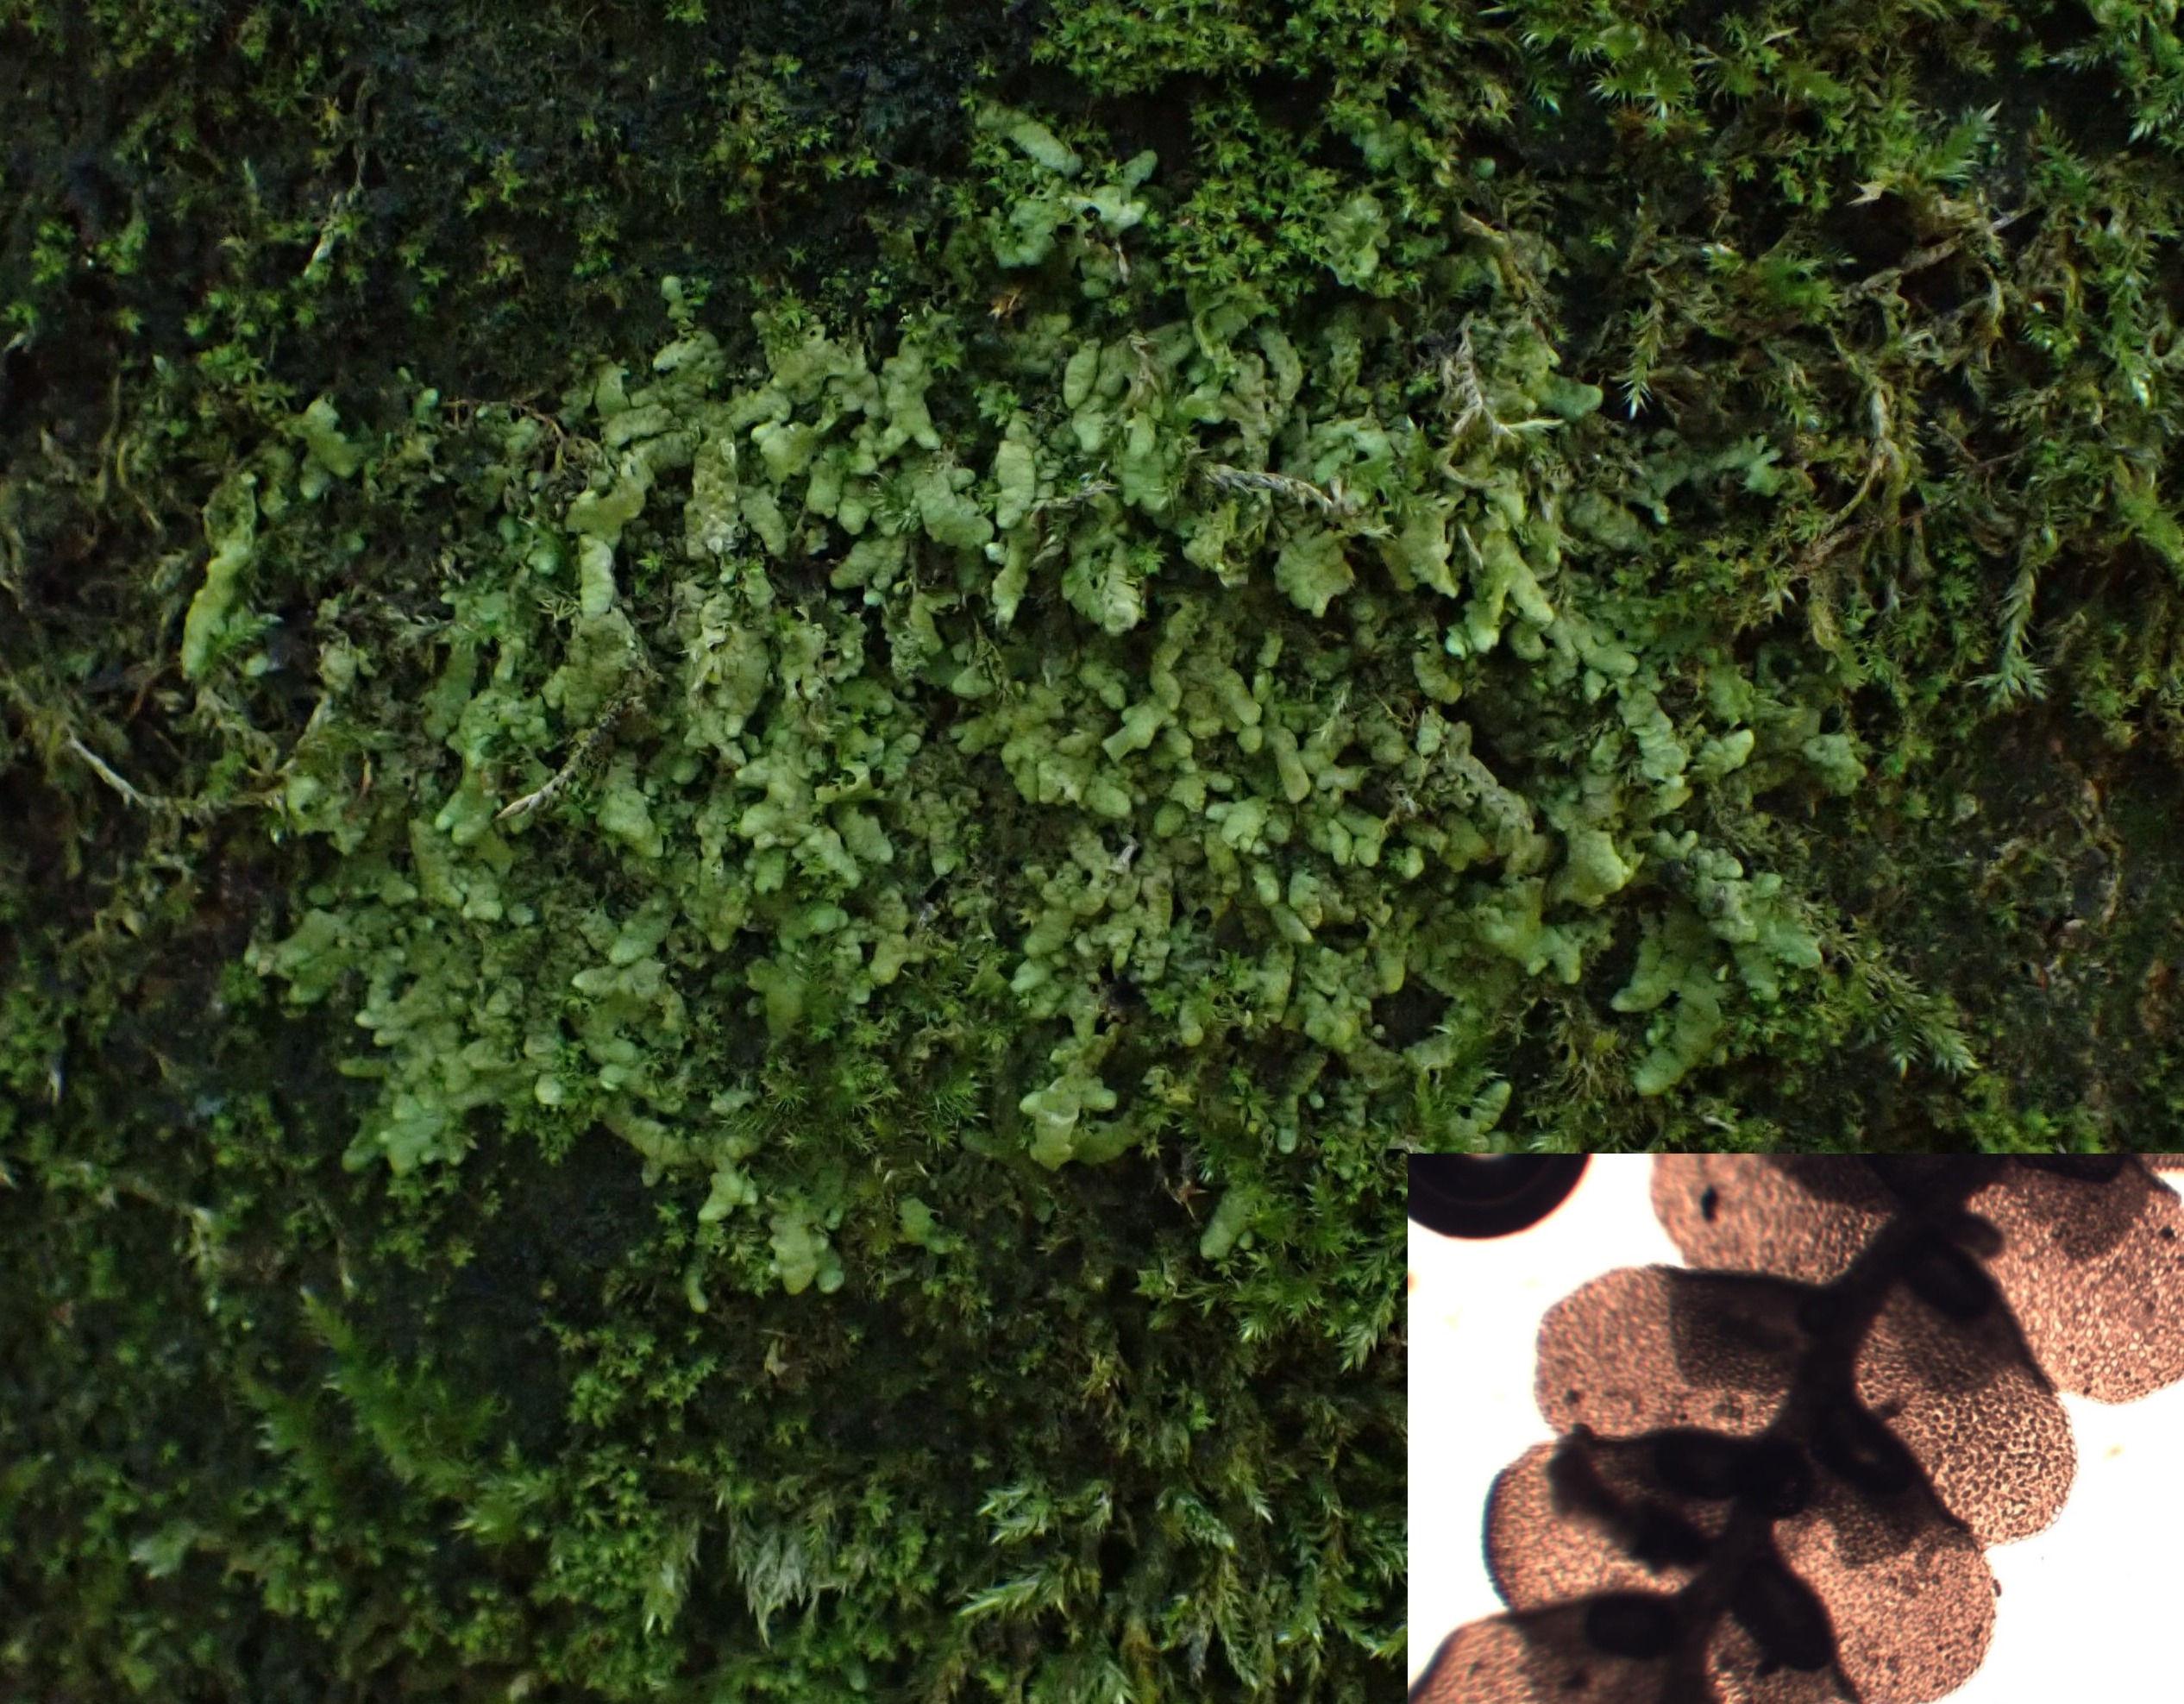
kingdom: Plantae
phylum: Marchantiophyta
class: Jungermanniopsida
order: Porellales
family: Radulaceae
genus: Radula
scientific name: Radula complanata
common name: Almindelig spartelmos
